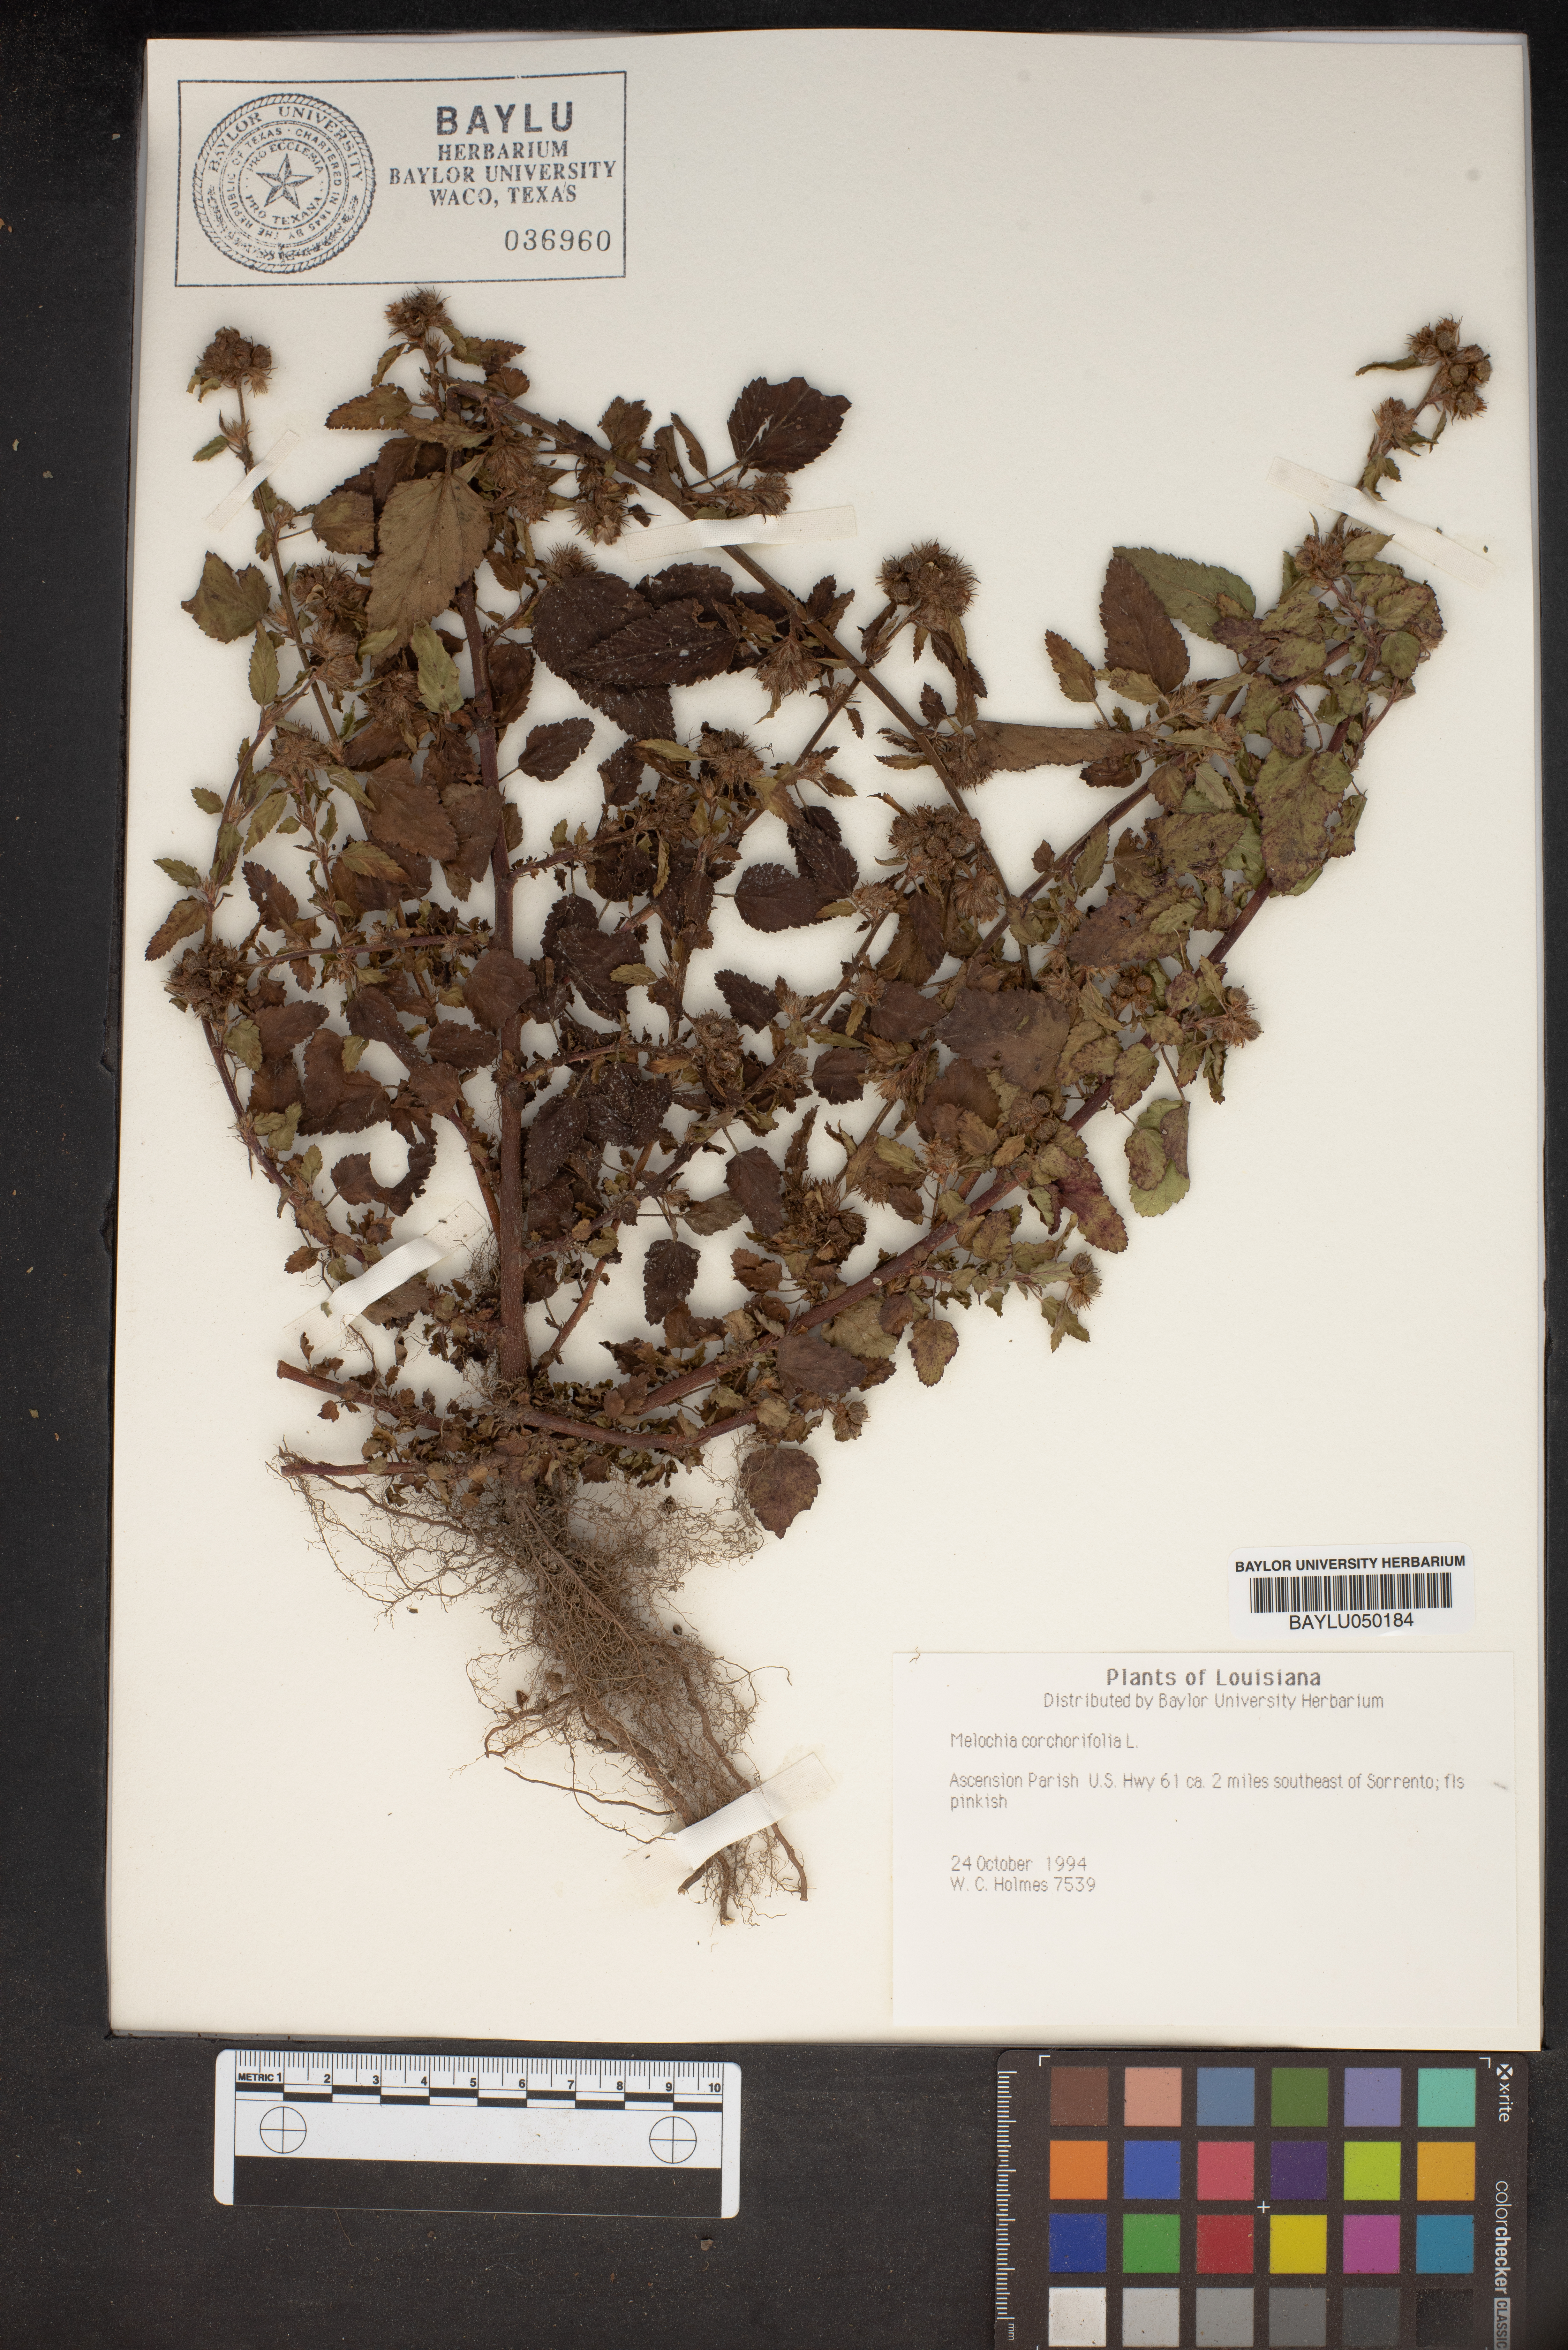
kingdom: Plantae
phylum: Tracheophyta
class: Magnoliopsida
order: Malvales
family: Malvaceae
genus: Melochia
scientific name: Melochia corchorifolia
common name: Chocolateweed
